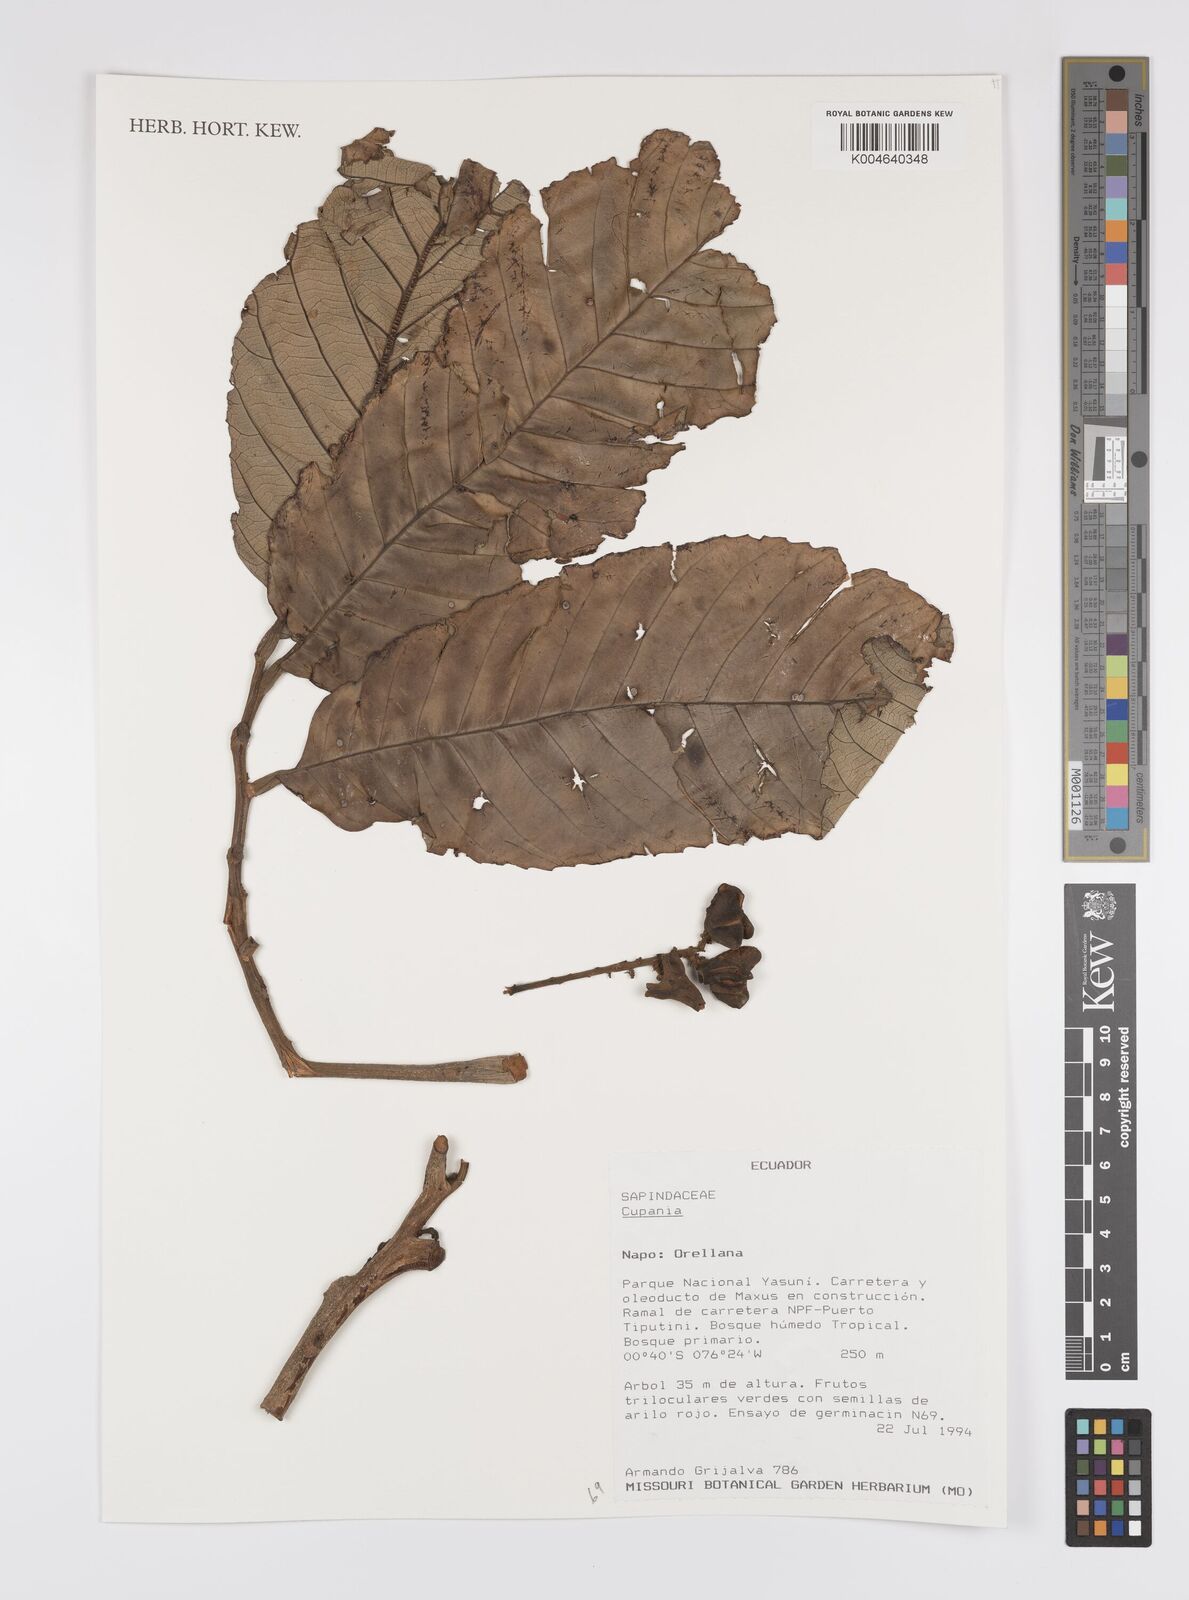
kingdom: Plantae
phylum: Tracheophyta
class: Magnoliopsida
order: Sapindales
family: Sapindaceae
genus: Cupania
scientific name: Cupania
